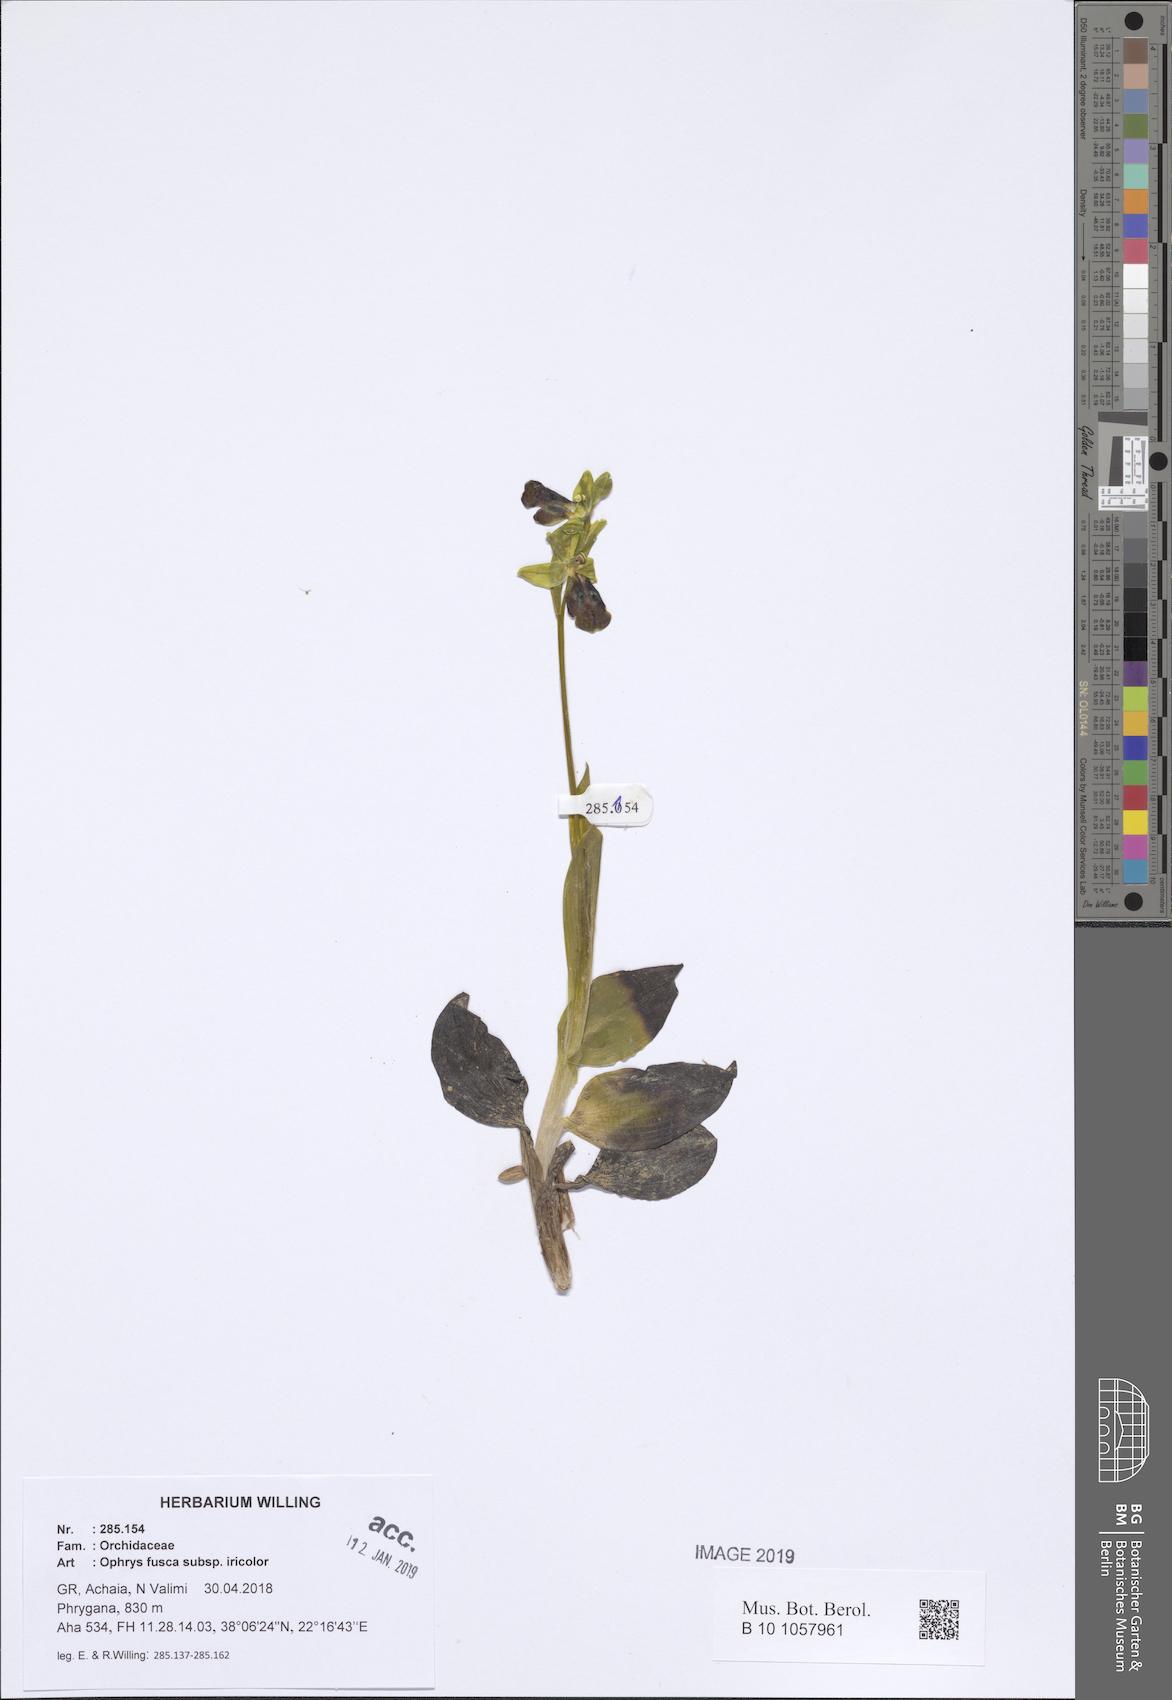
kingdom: Plantae
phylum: Tracheophyta
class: Liliopsida
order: Asparagales
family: Orchidaceae
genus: Ophrys
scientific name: Ophrys fusca
